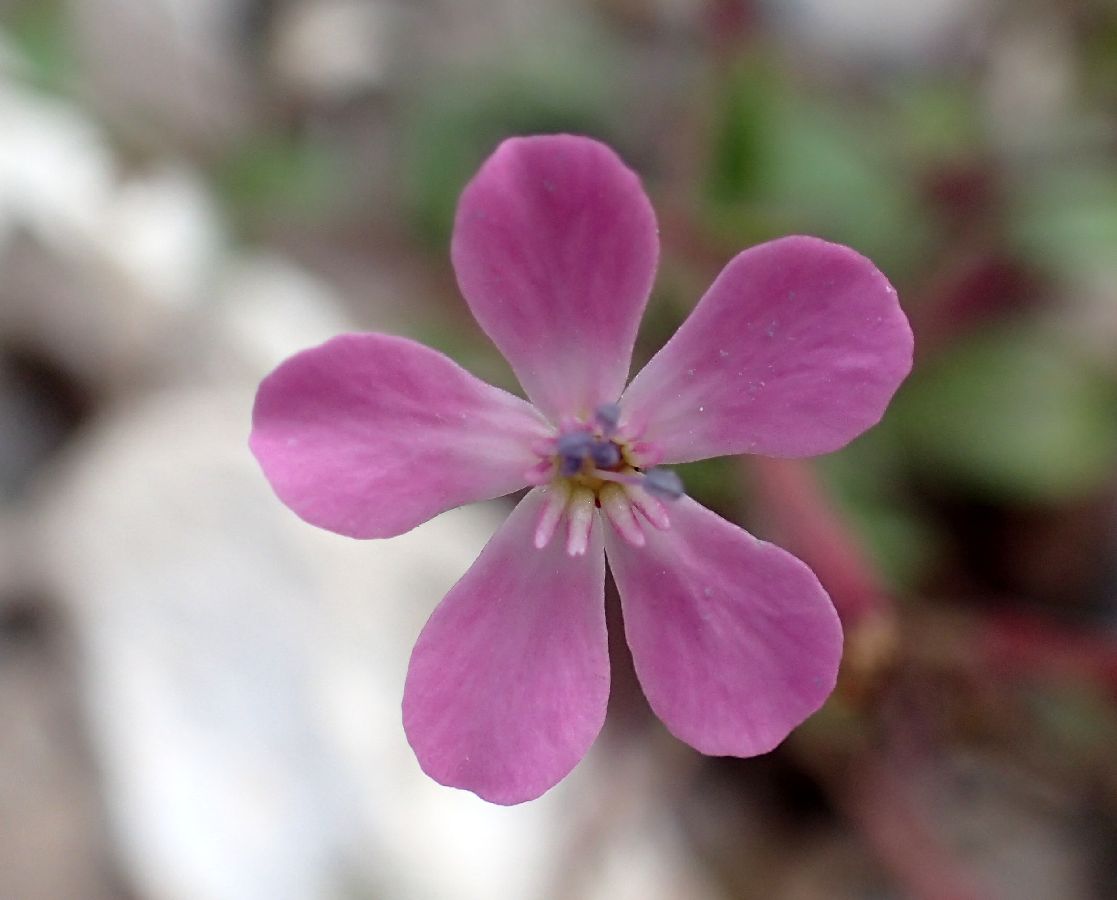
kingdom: Plantae
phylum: Tracheophyta
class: Magnoliopsida
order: Caryophyllales
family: Caryophyllaceae
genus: Silene
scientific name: Silene integripetala
